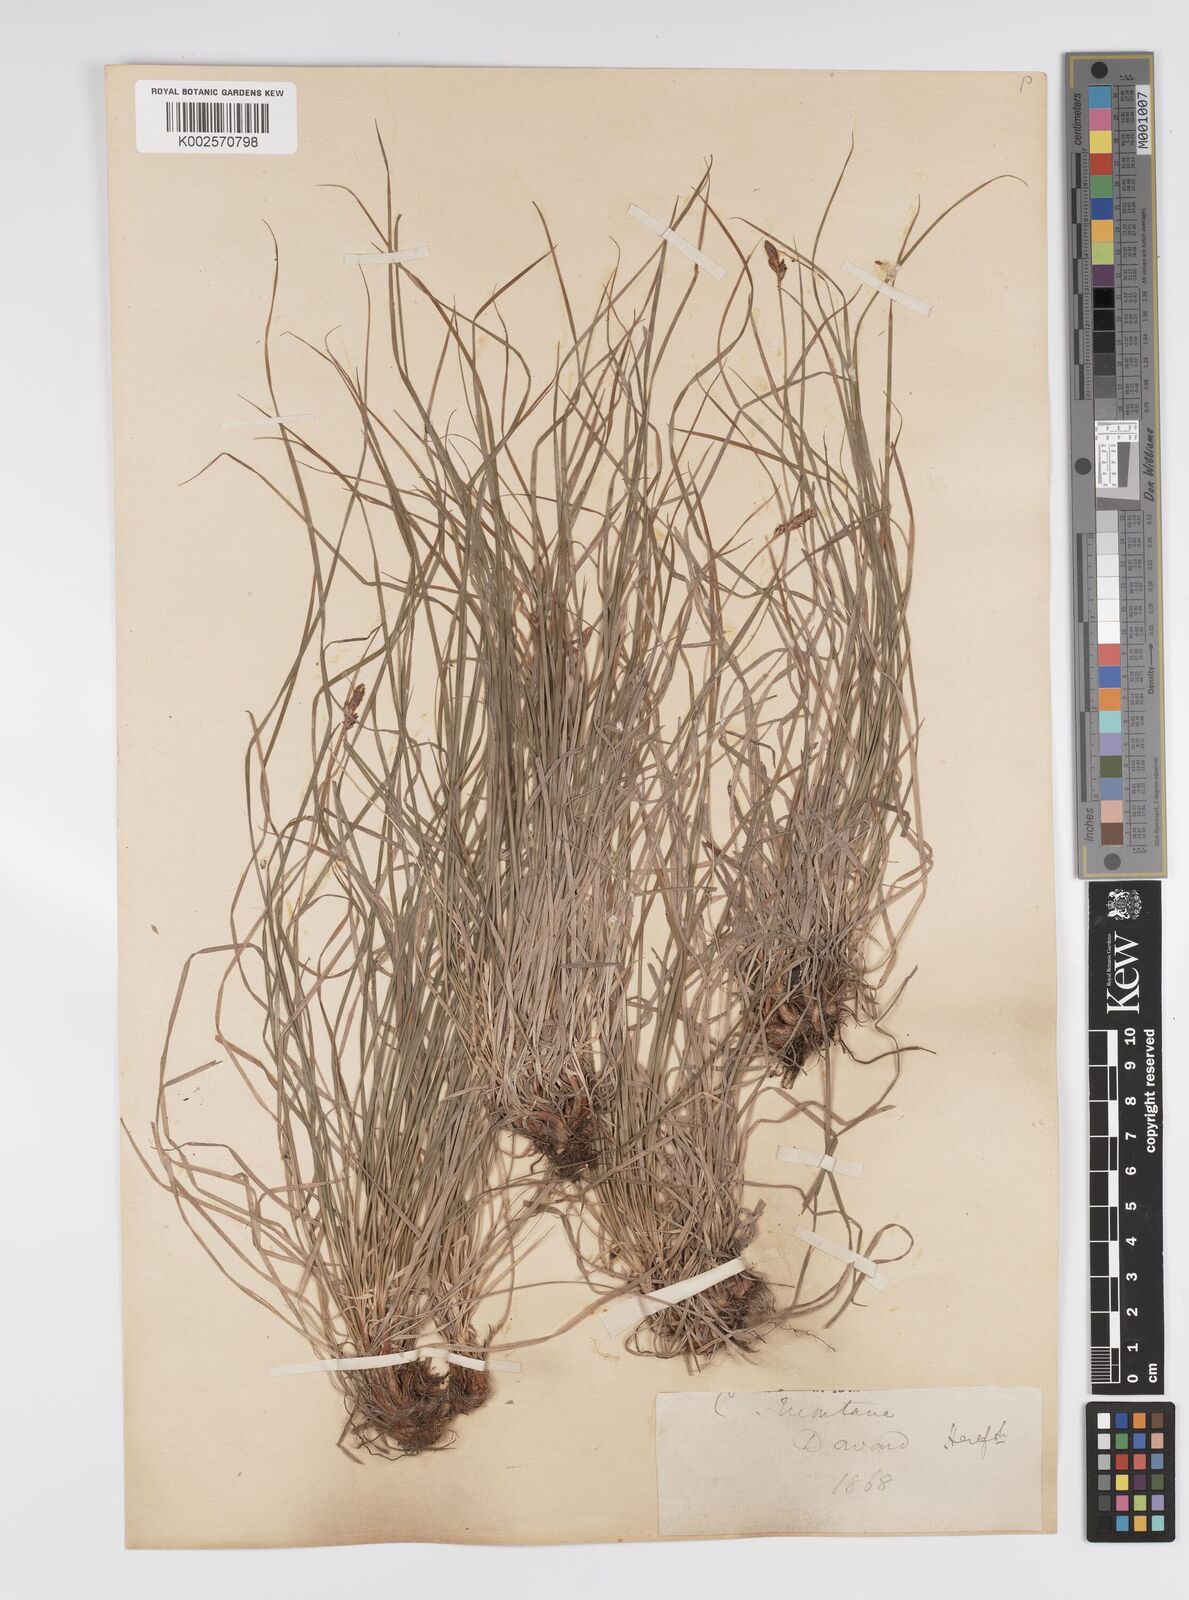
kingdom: Plantae
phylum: Tracheophyta
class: Liliopsida
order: Poales
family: Cyperaceae
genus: Carex
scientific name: Carex montana
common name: Soft-leaved sedge
